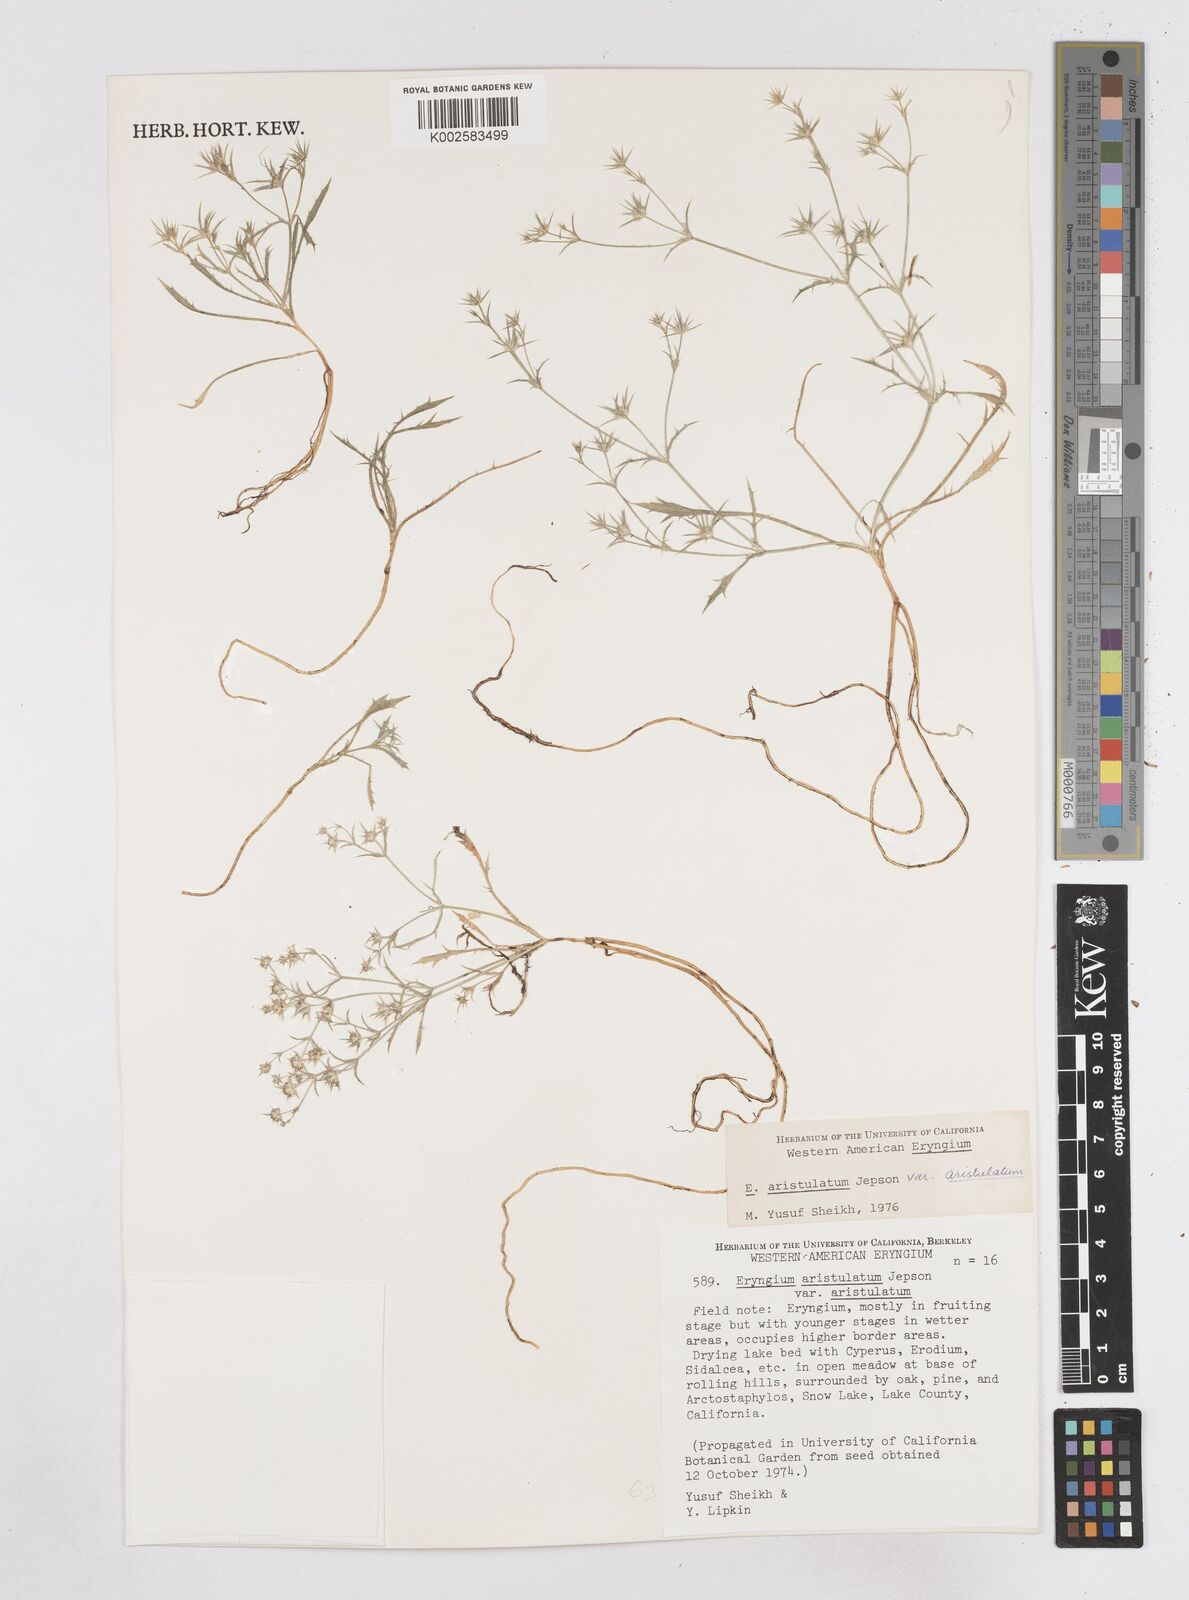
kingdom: Plantae
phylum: Tracheophyta
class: Magnoliopsida
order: Apiales
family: Apiaceae
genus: Eryngium
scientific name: Eryngium aristulatum
